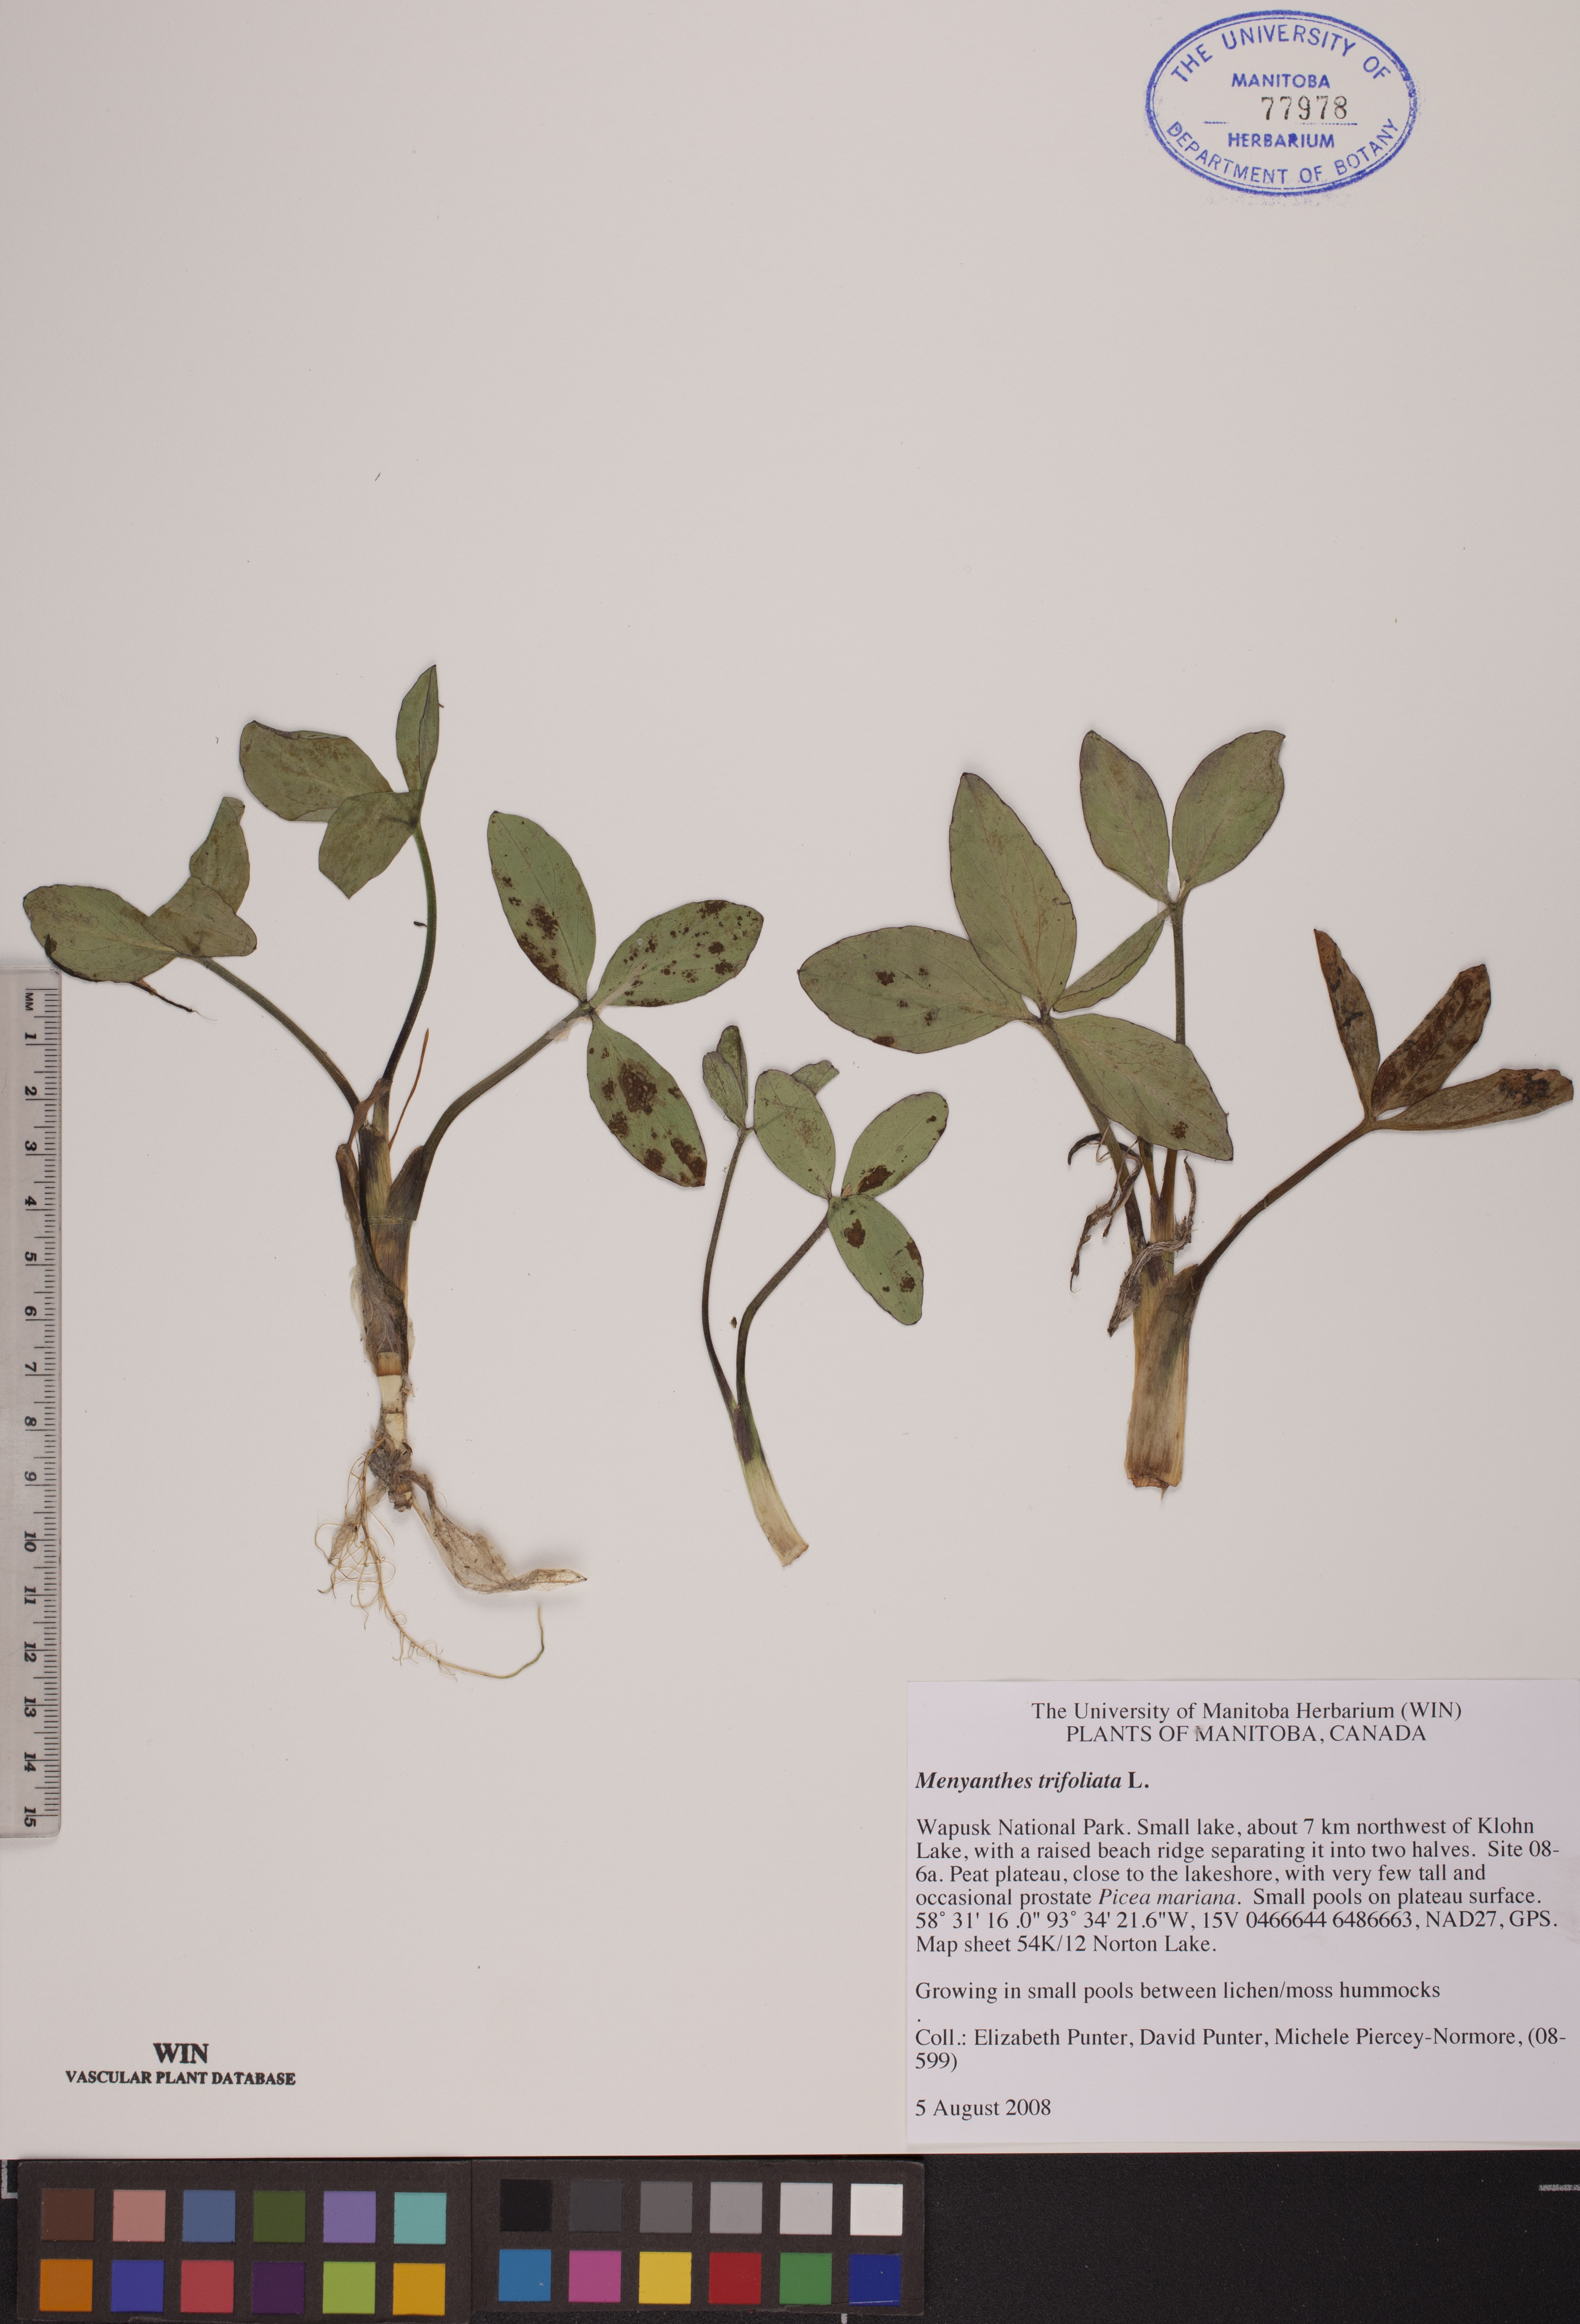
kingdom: Plantae
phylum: Tracheophyta
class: Magnoliopsida
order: Asterales
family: Menyanthaceae
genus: Menyanthes
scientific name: Menyanthes trifoliata
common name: Bogbean
